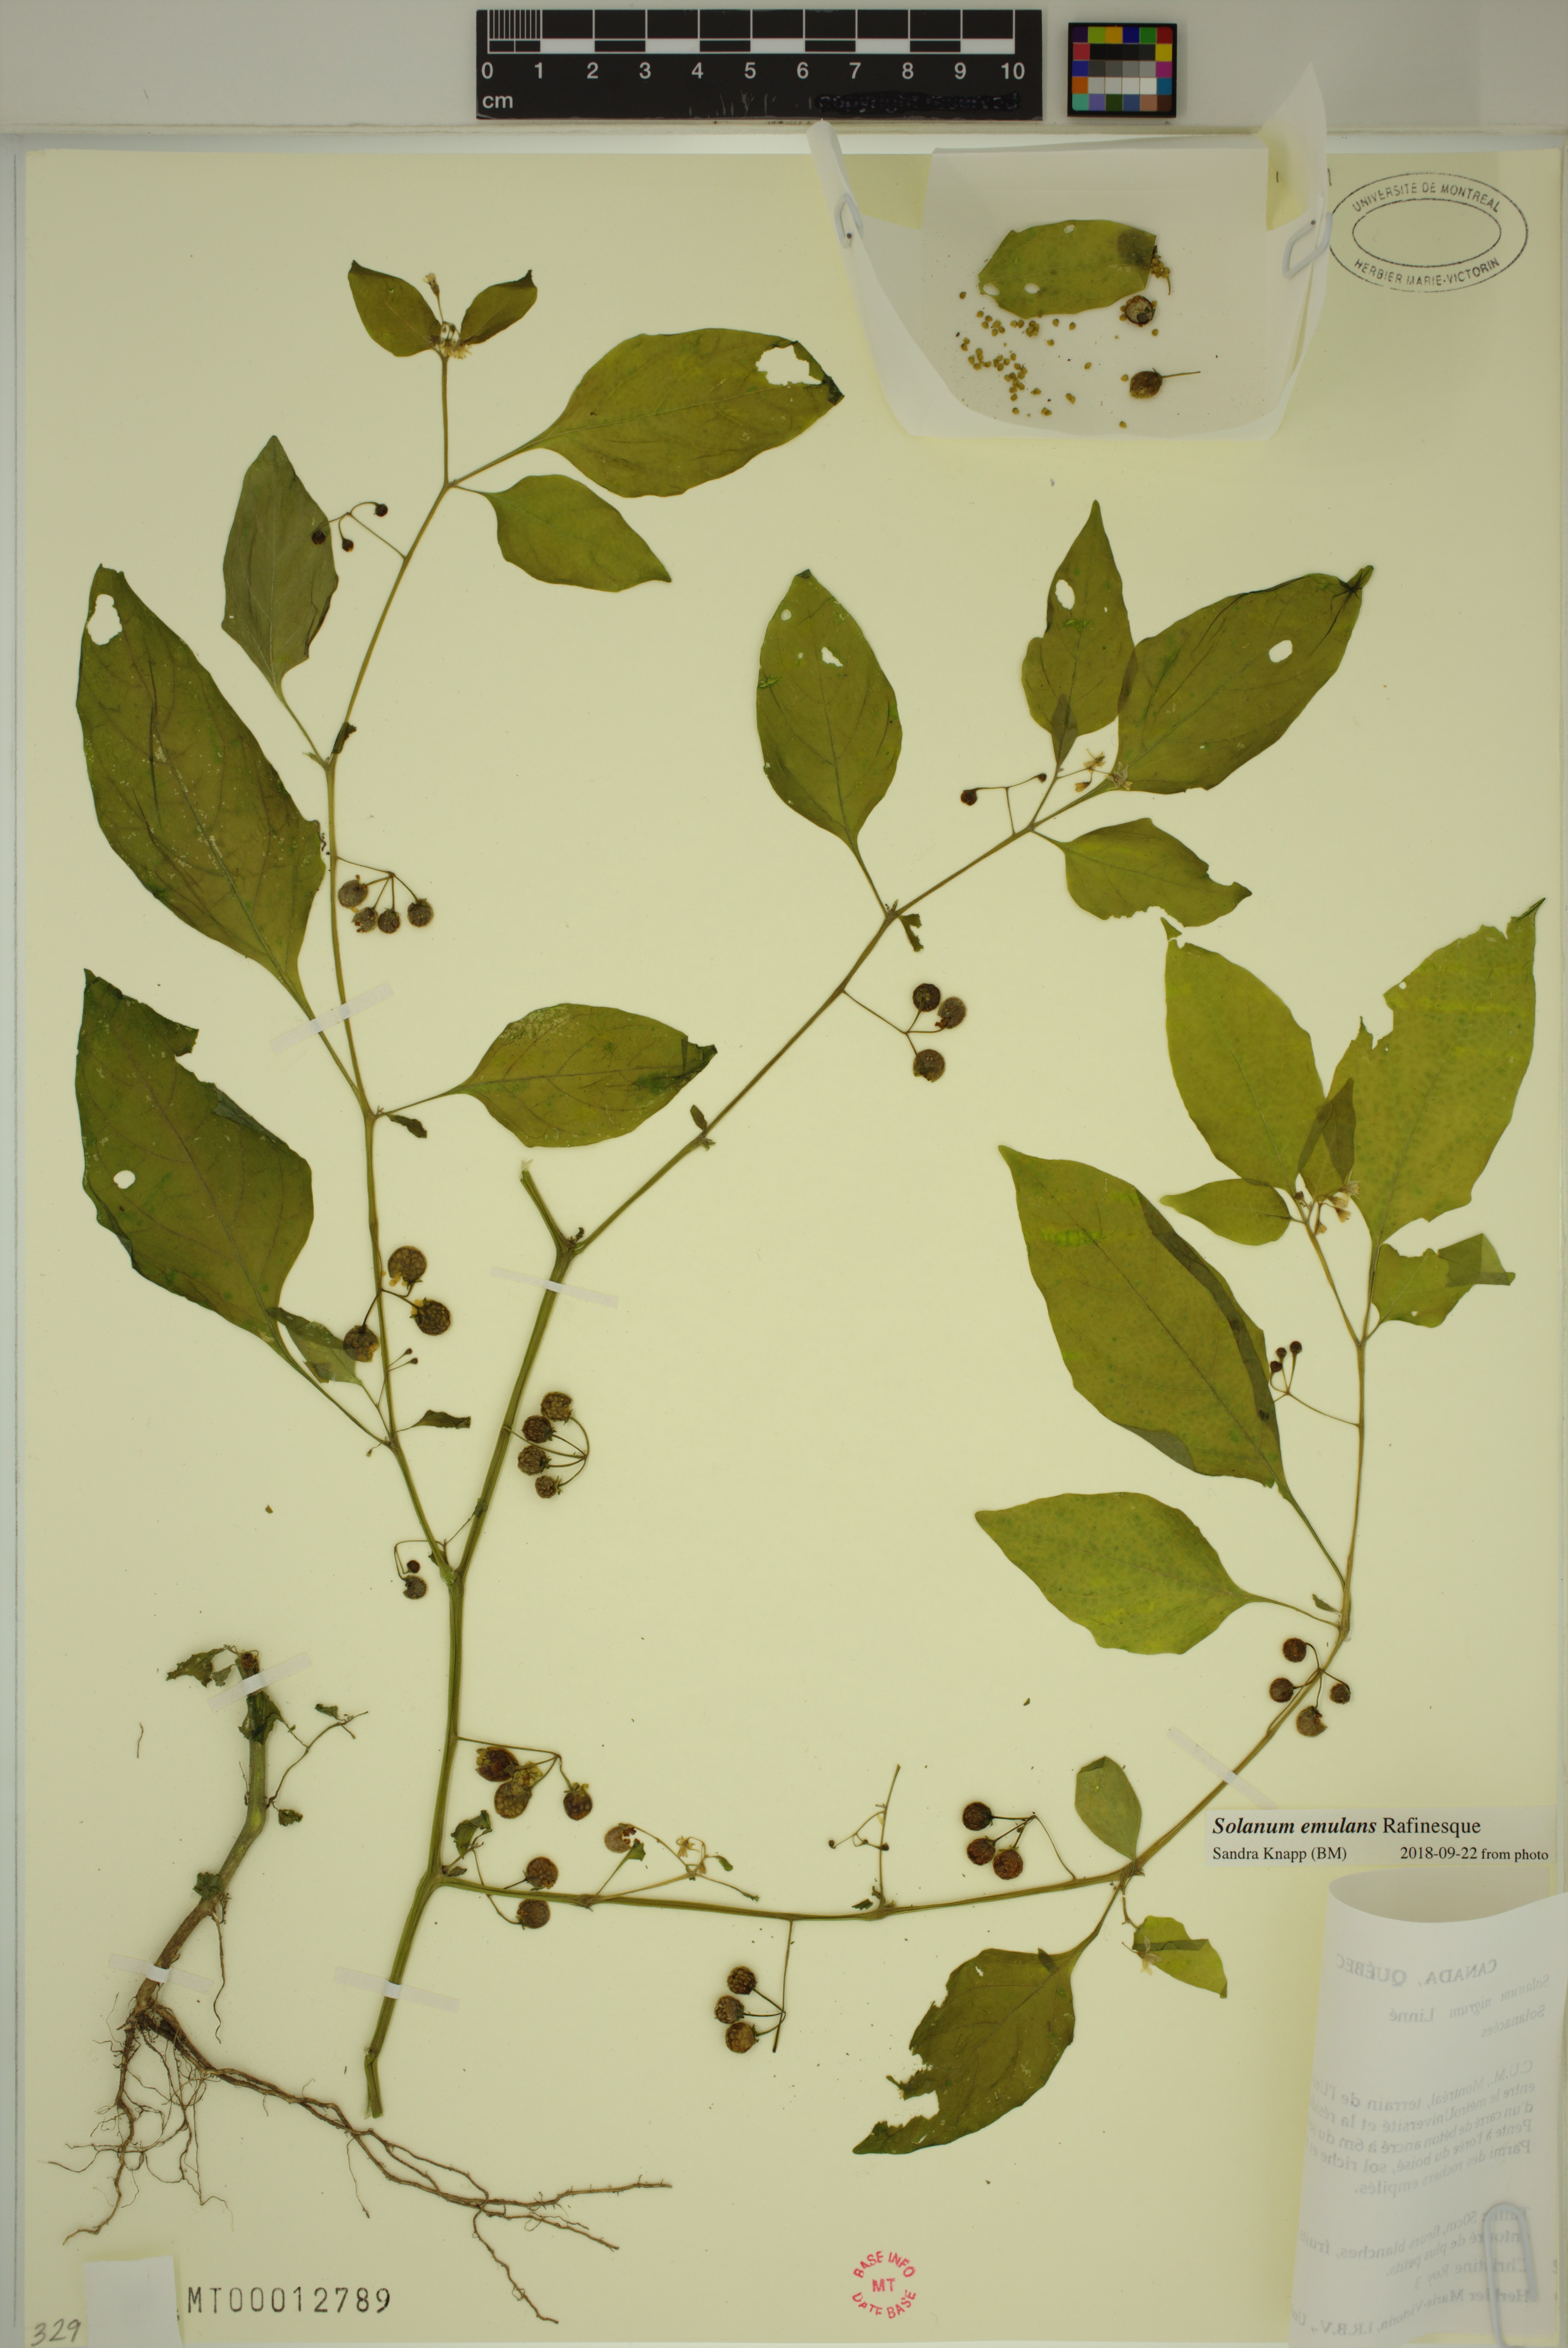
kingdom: Plantae
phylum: Tracheophyta
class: Magnoliopsida
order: Solanales
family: Solanaceae
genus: Solanum
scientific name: Solanum emulans
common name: Eastern black nightshade
